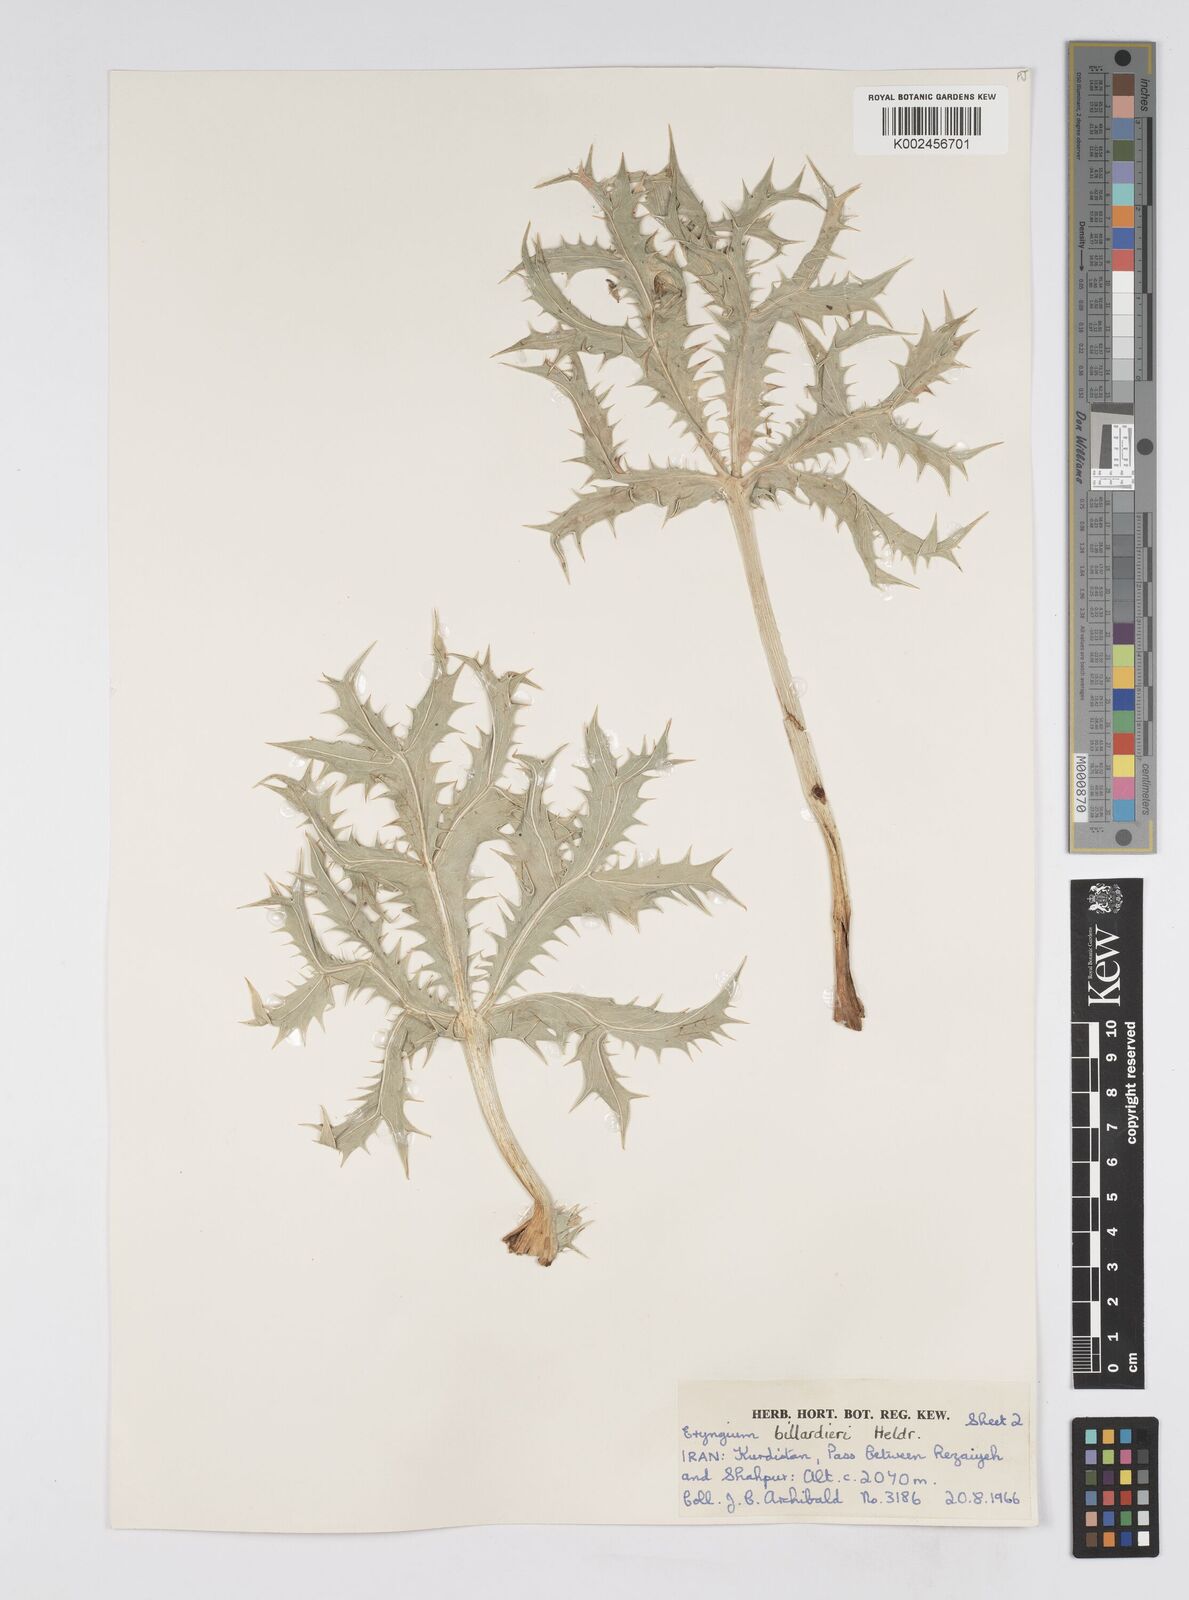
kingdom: Plantae
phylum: Tracheophyta
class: Magnoliopsida
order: Apiales
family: Apiaceae
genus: Eryngium
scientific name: Eryngium heldreichii
